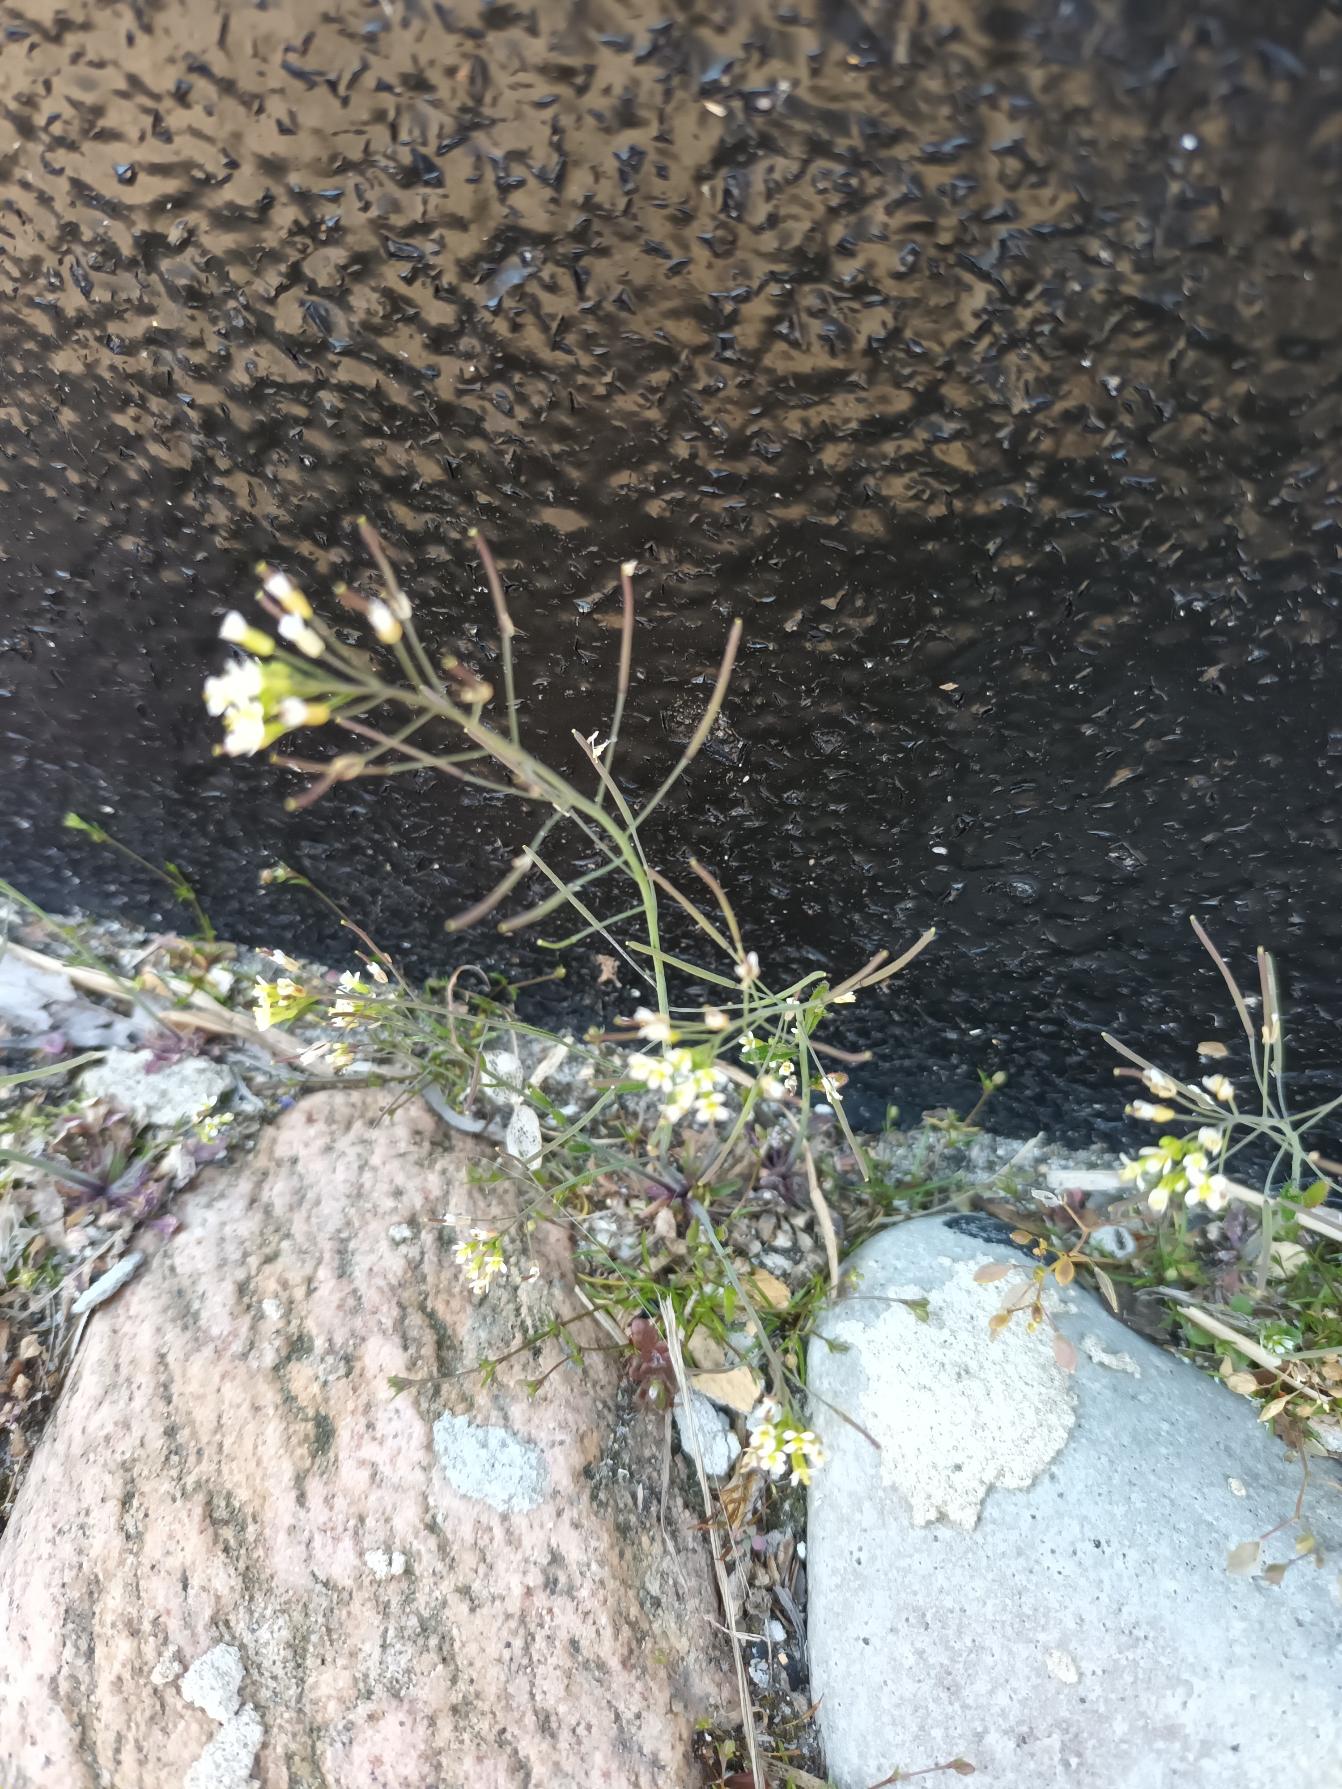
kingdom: Plantae
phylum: Tracheophyta
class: Magnoliopsida
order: Brassicales
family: Brassicaceae
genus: Arabidopsis
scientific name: Arabidopsis thaliana
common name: Almindelig gåsemad
